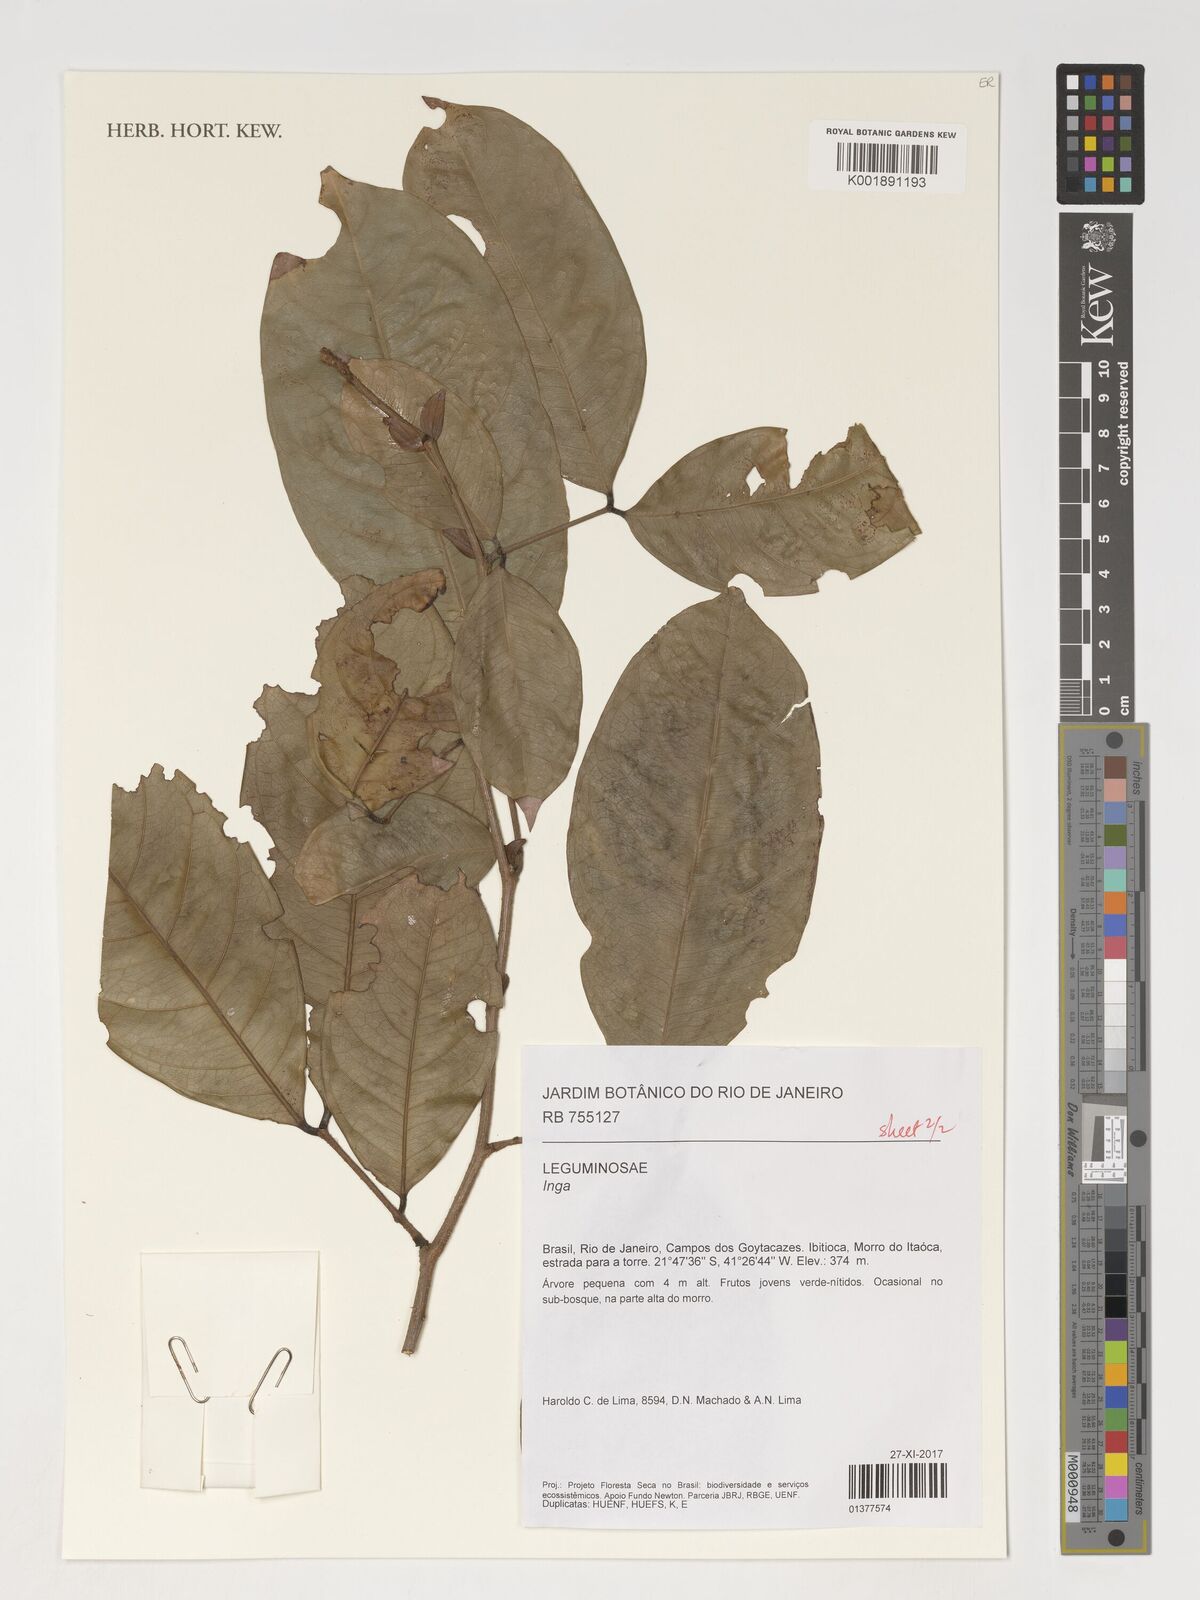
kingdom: Plantae
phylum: Tracheophyta
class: Magnoliopsida
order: Fabales
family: Fabaceae
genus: Inga
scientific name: Inga
